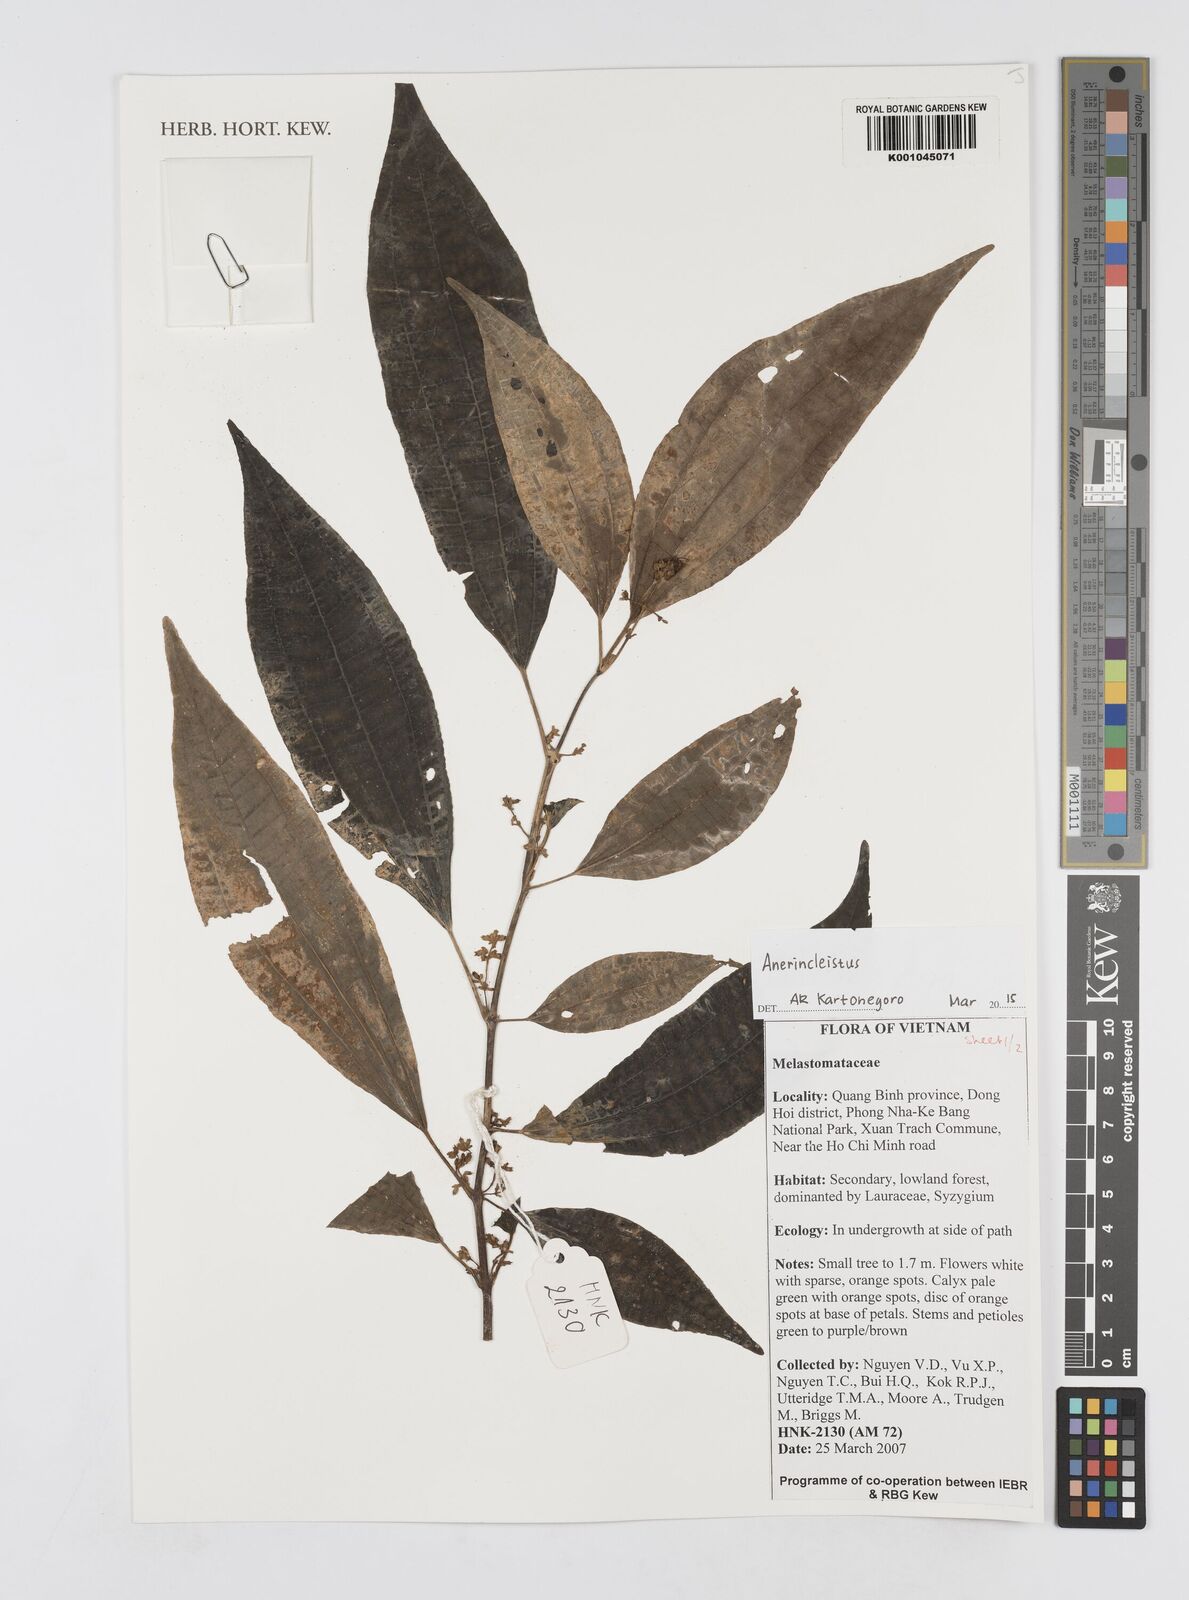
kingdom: Plantae
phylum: Tracheophyta
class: Magnoliopsida
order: Myrtales
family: Melastomataceae
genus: Anerincleistus
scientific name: Anerincleistus
